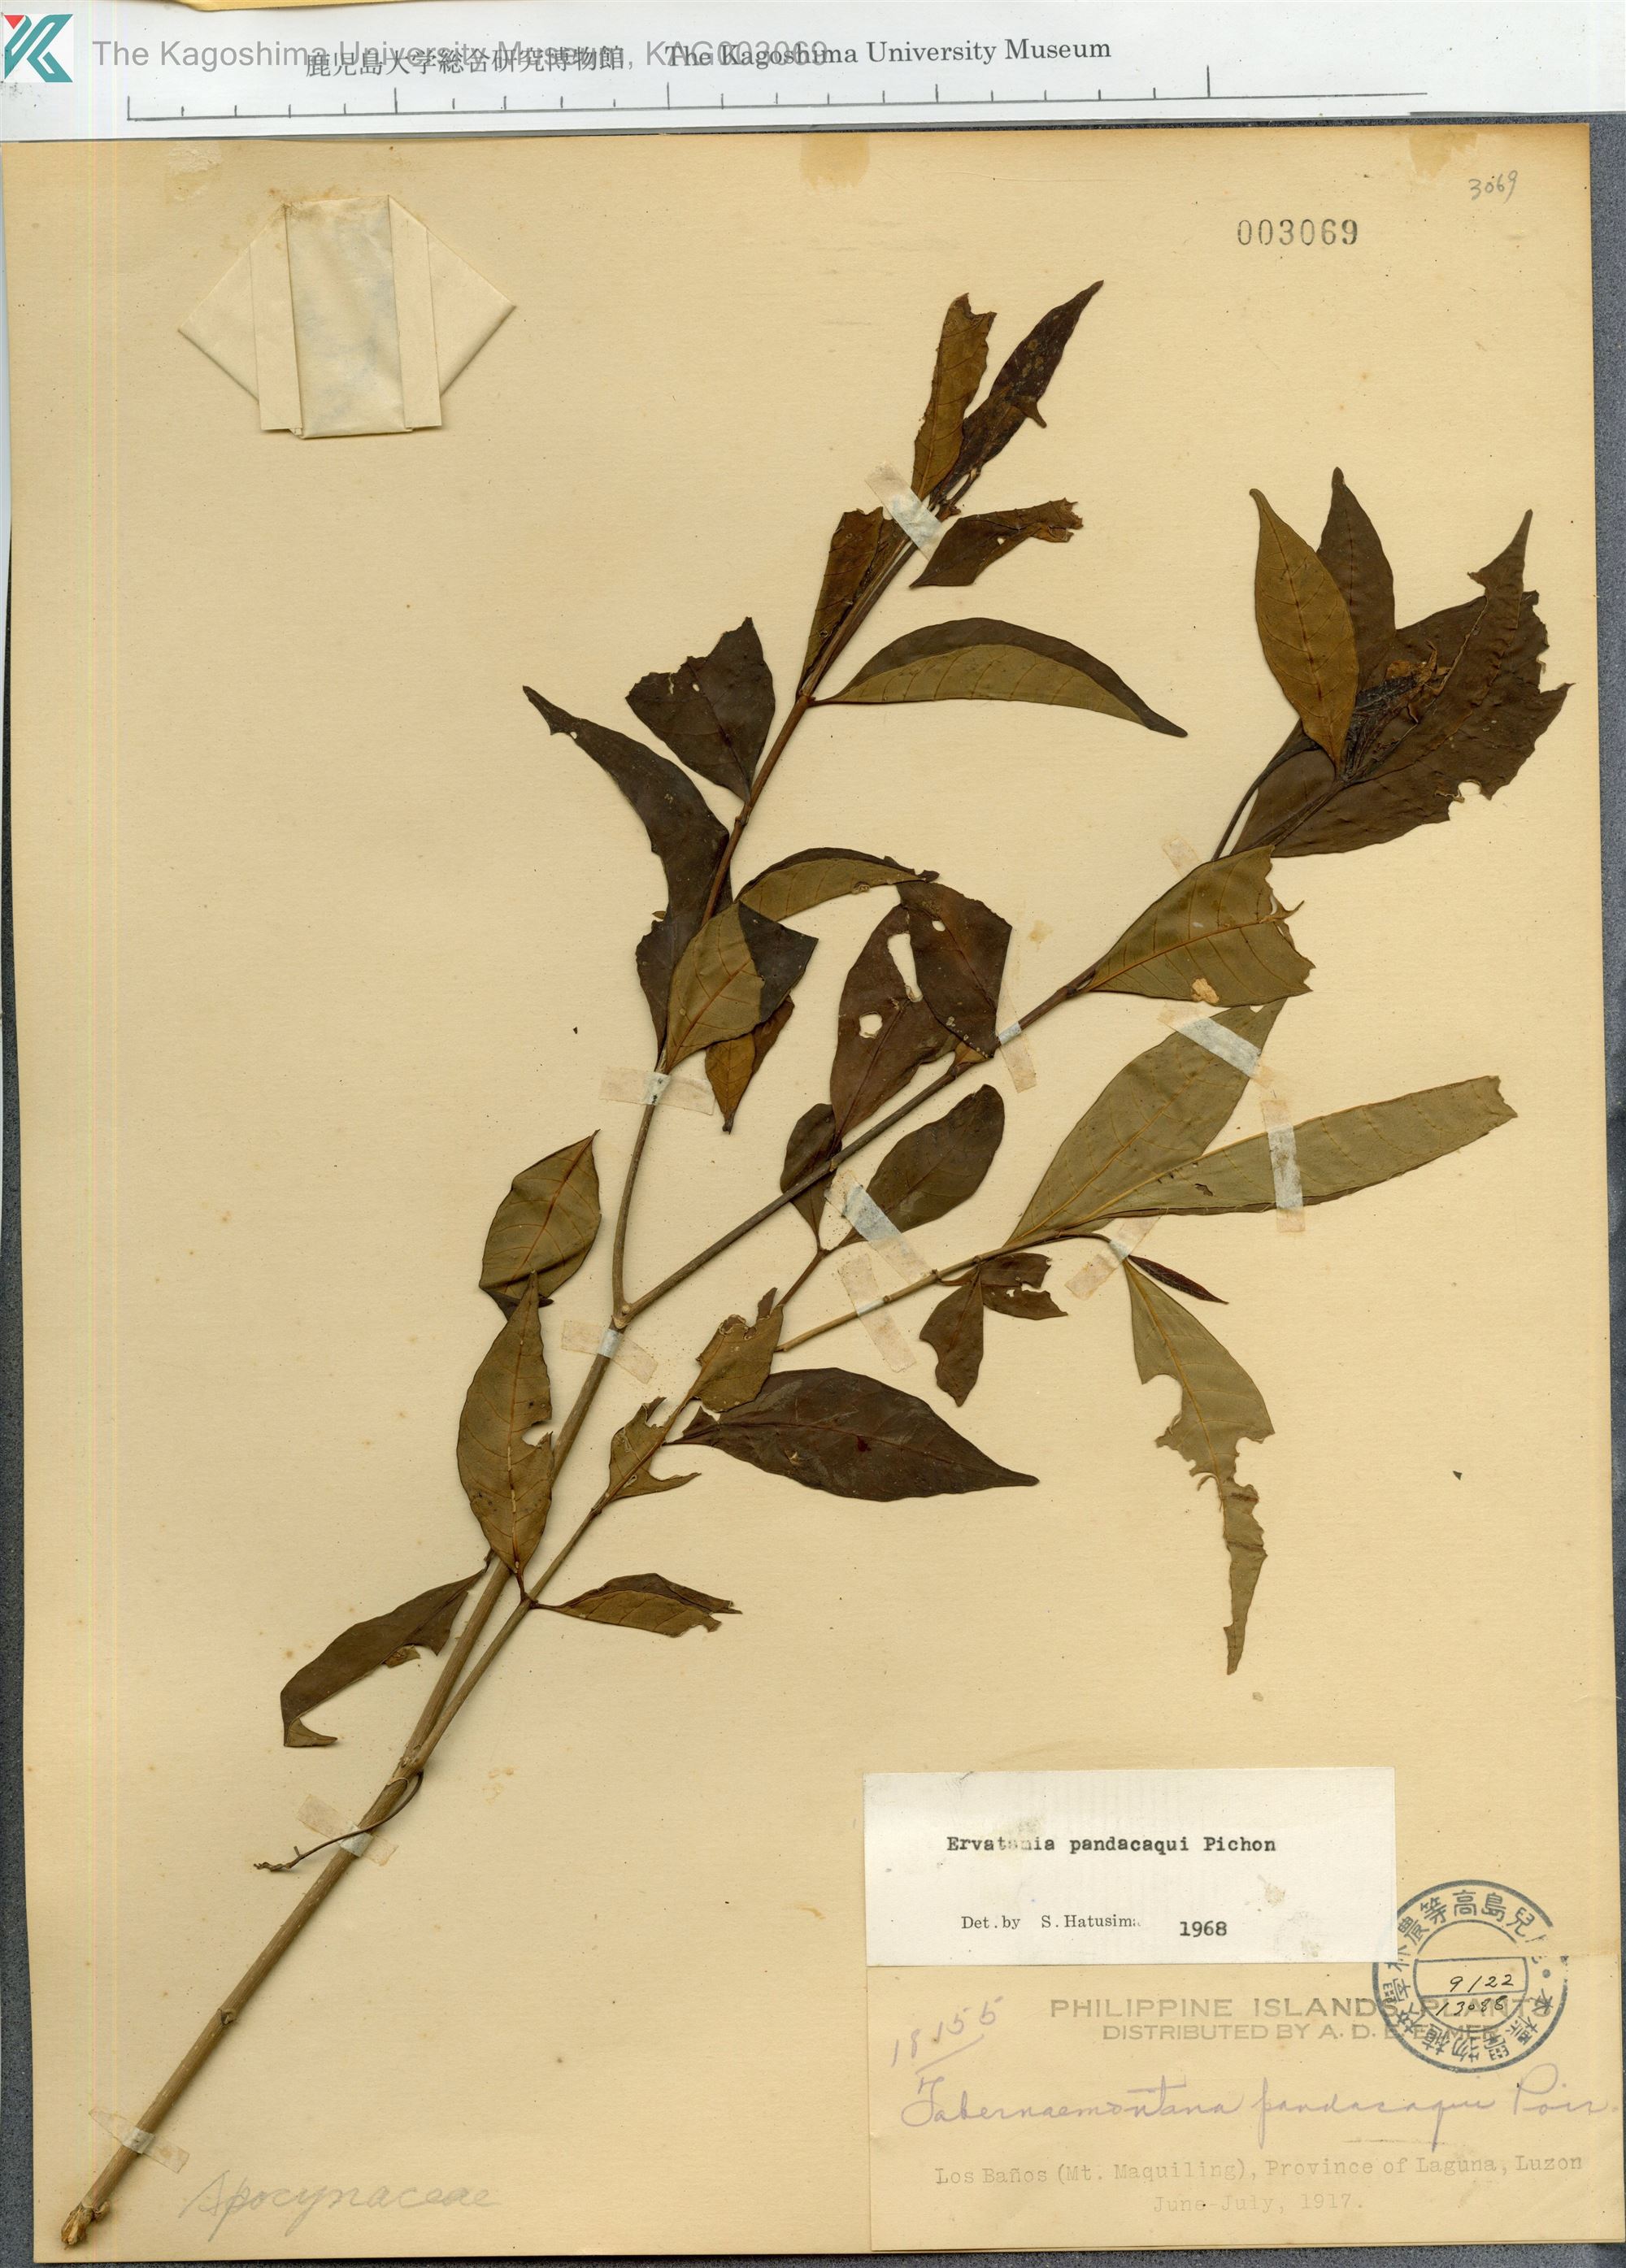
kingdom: Plantae
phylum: Tracheophyta
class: Magnoliopsida
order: Gentianales
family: Apocynaceae
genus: Tabernaemontana
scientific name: Tabernaemontana pandacaqui
